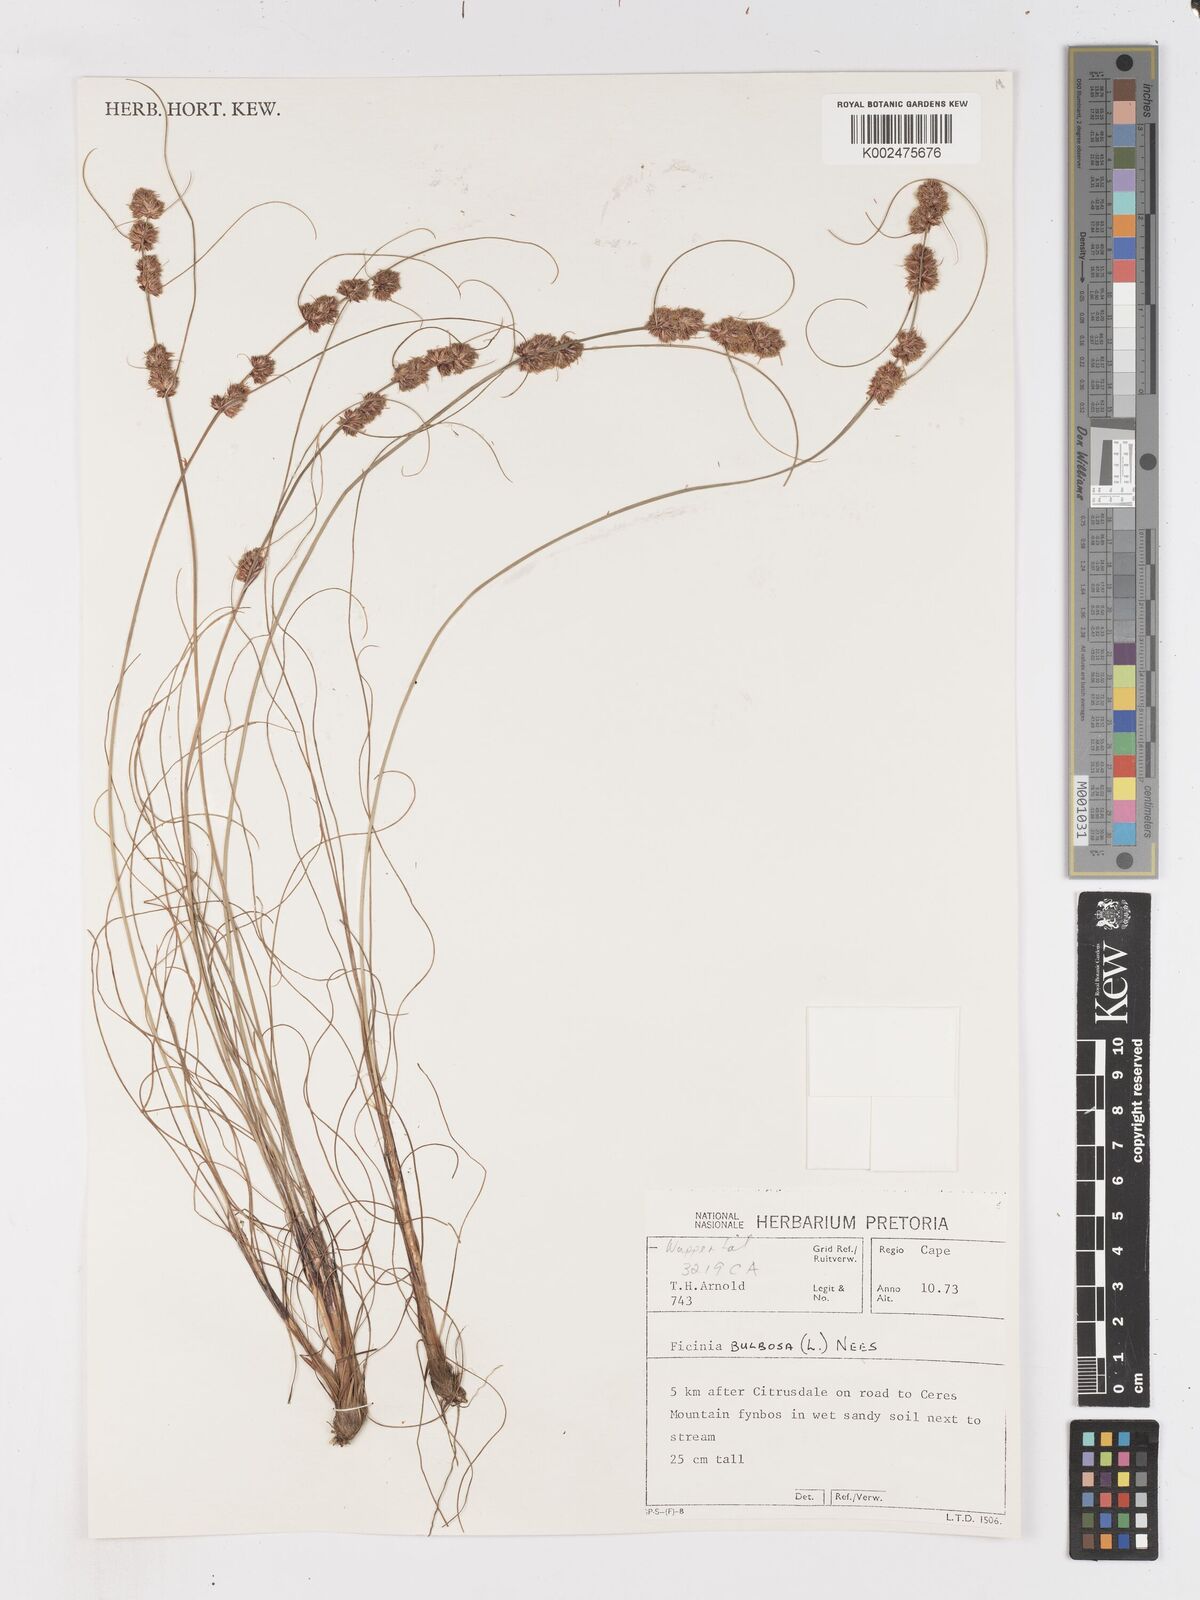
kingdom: Plantae
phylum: Tracheophyta
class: Liliopsida
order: Poales
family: Cyperaceae
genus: Ficinia
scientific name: Ficinia bulbosa
